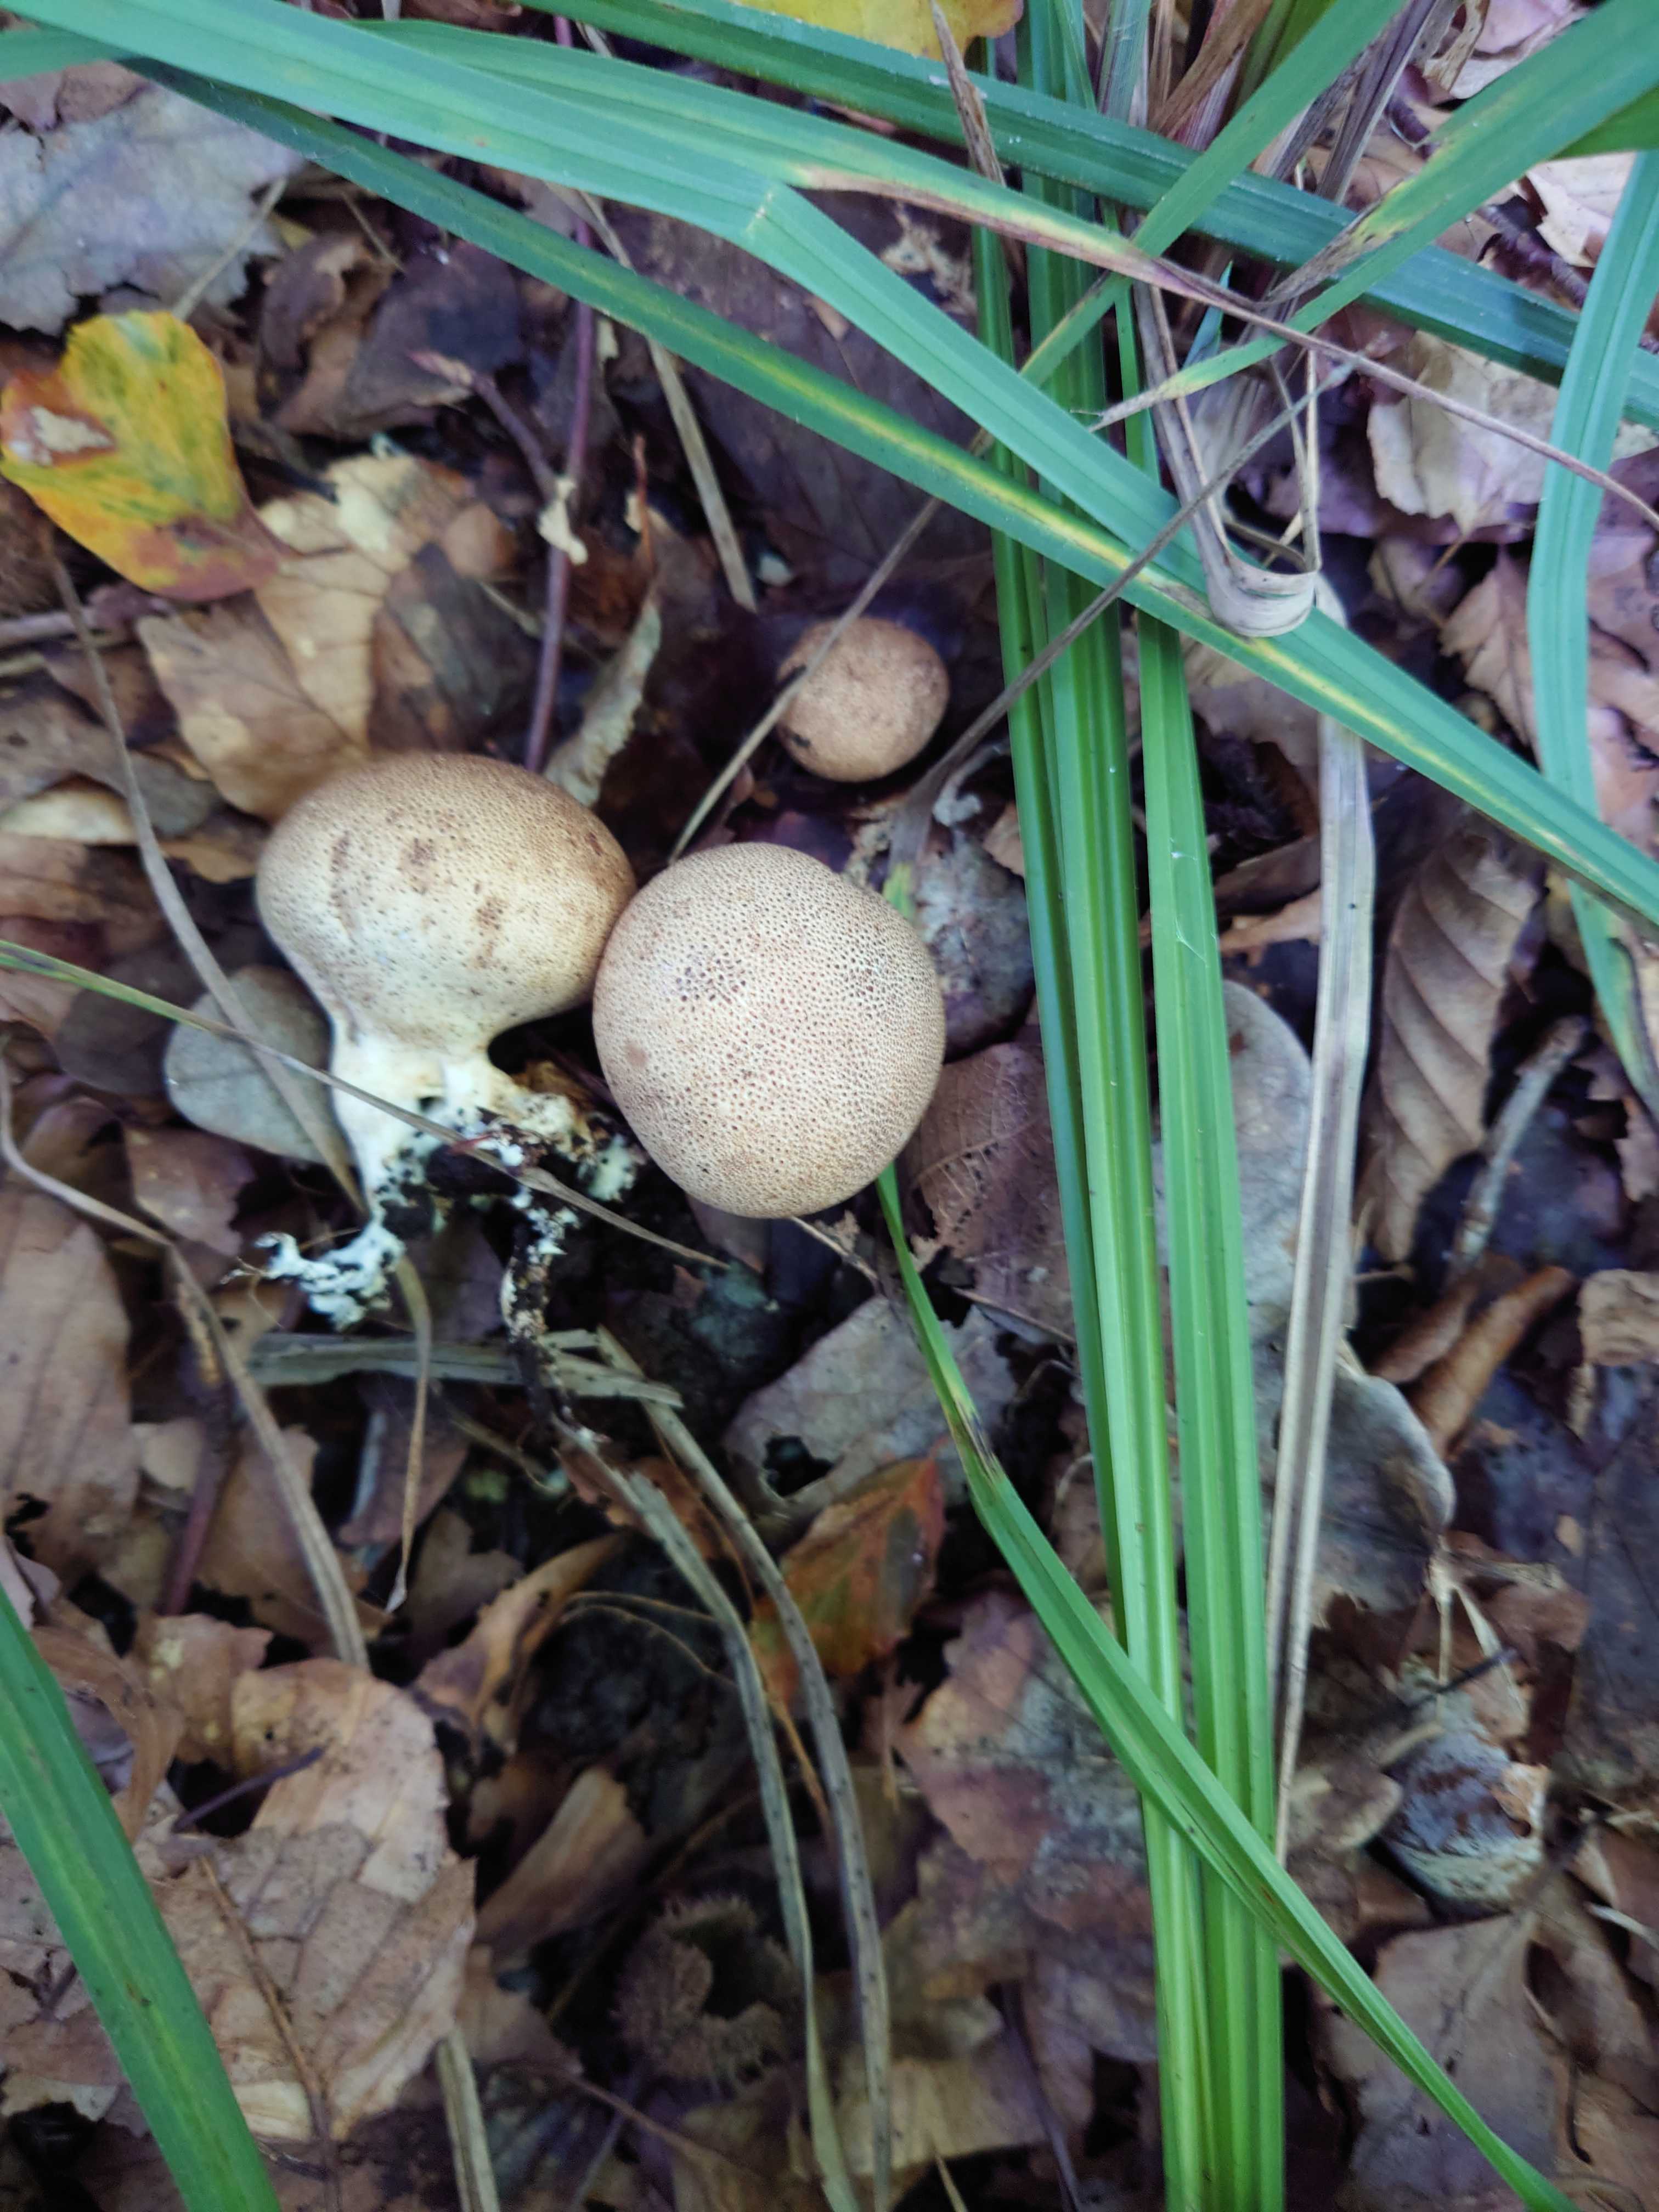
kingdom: Fungi
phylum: Basidiomycota
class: Agaricomycetes
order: Boletales
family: Sclerodermataceae
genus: Scleroderma
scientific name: Scleroderma verrucosum
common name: stilket bruskbold
